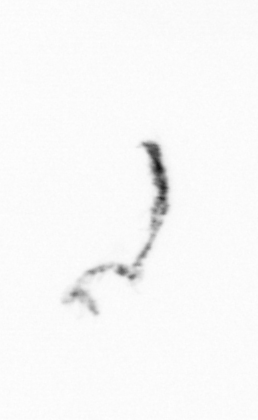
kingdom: Chromista
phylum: Ochrophyta
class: Bacillariophyceae
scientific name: Bacillariophyceae
